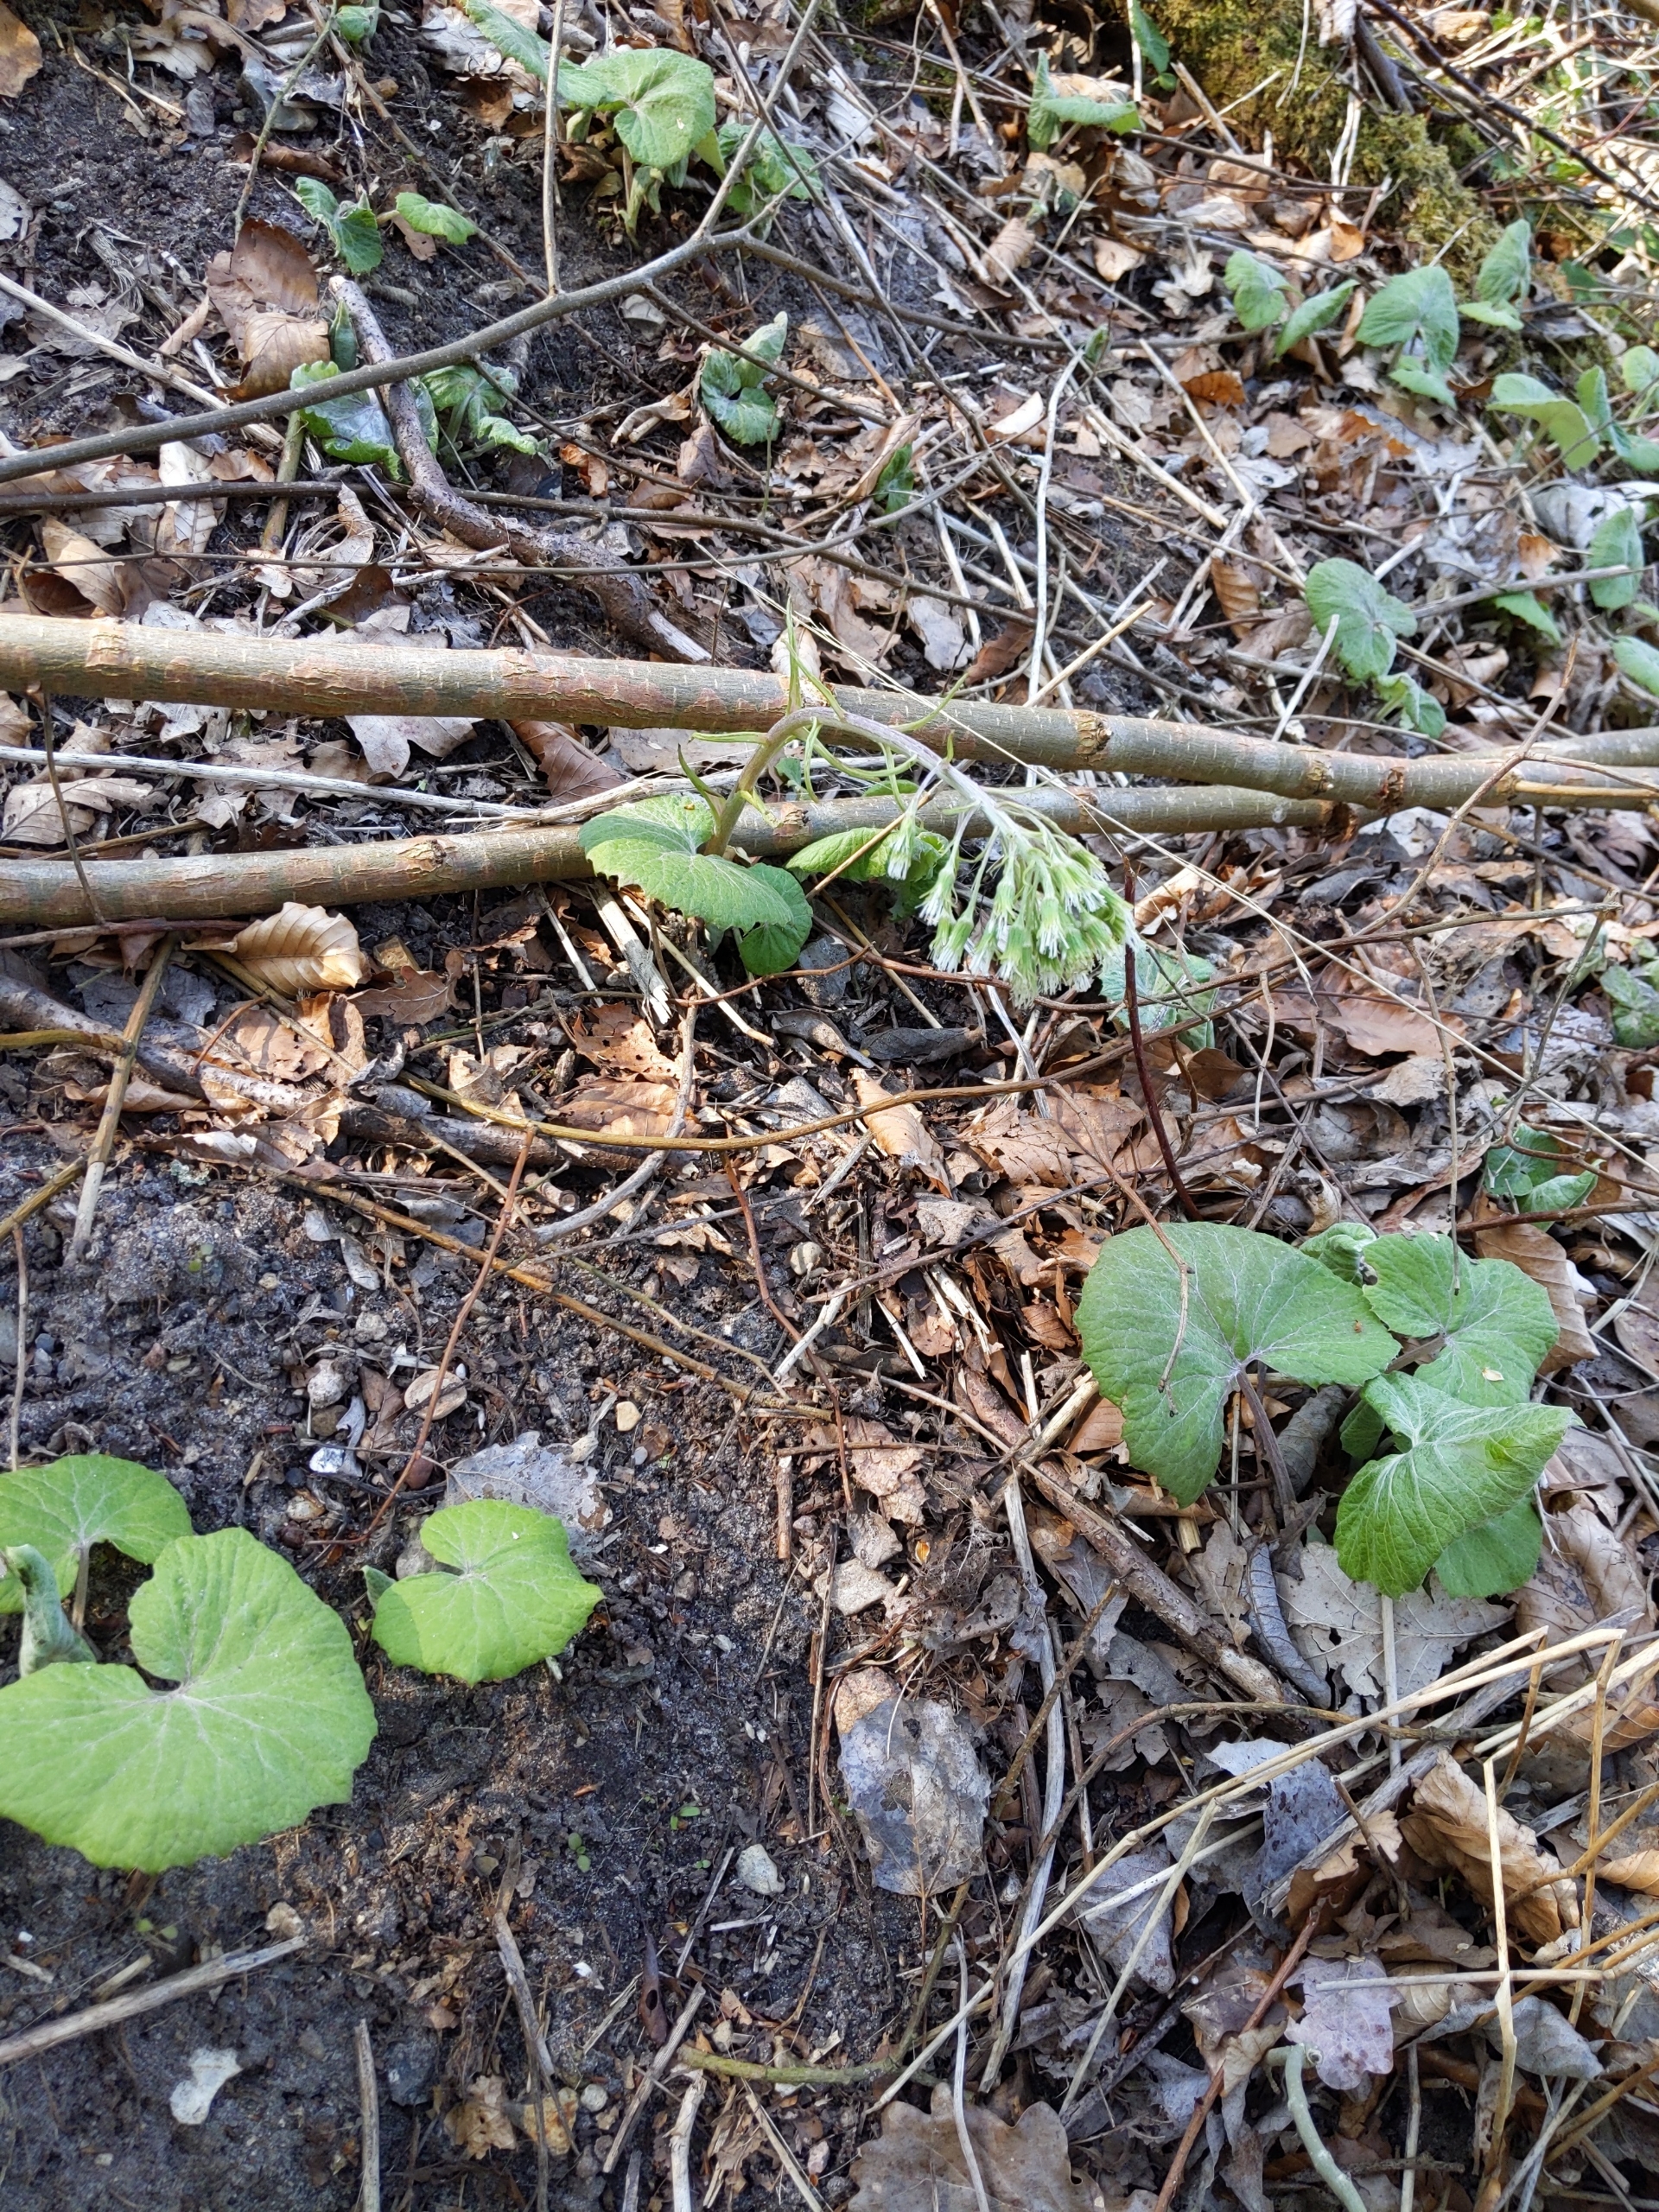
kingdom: Plantae
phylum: Tracheophyta
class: Magnoliopsida
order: Asterales
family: Asteraceae
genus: Petasites
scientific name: Petasites albus
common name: Hvid hestehov
